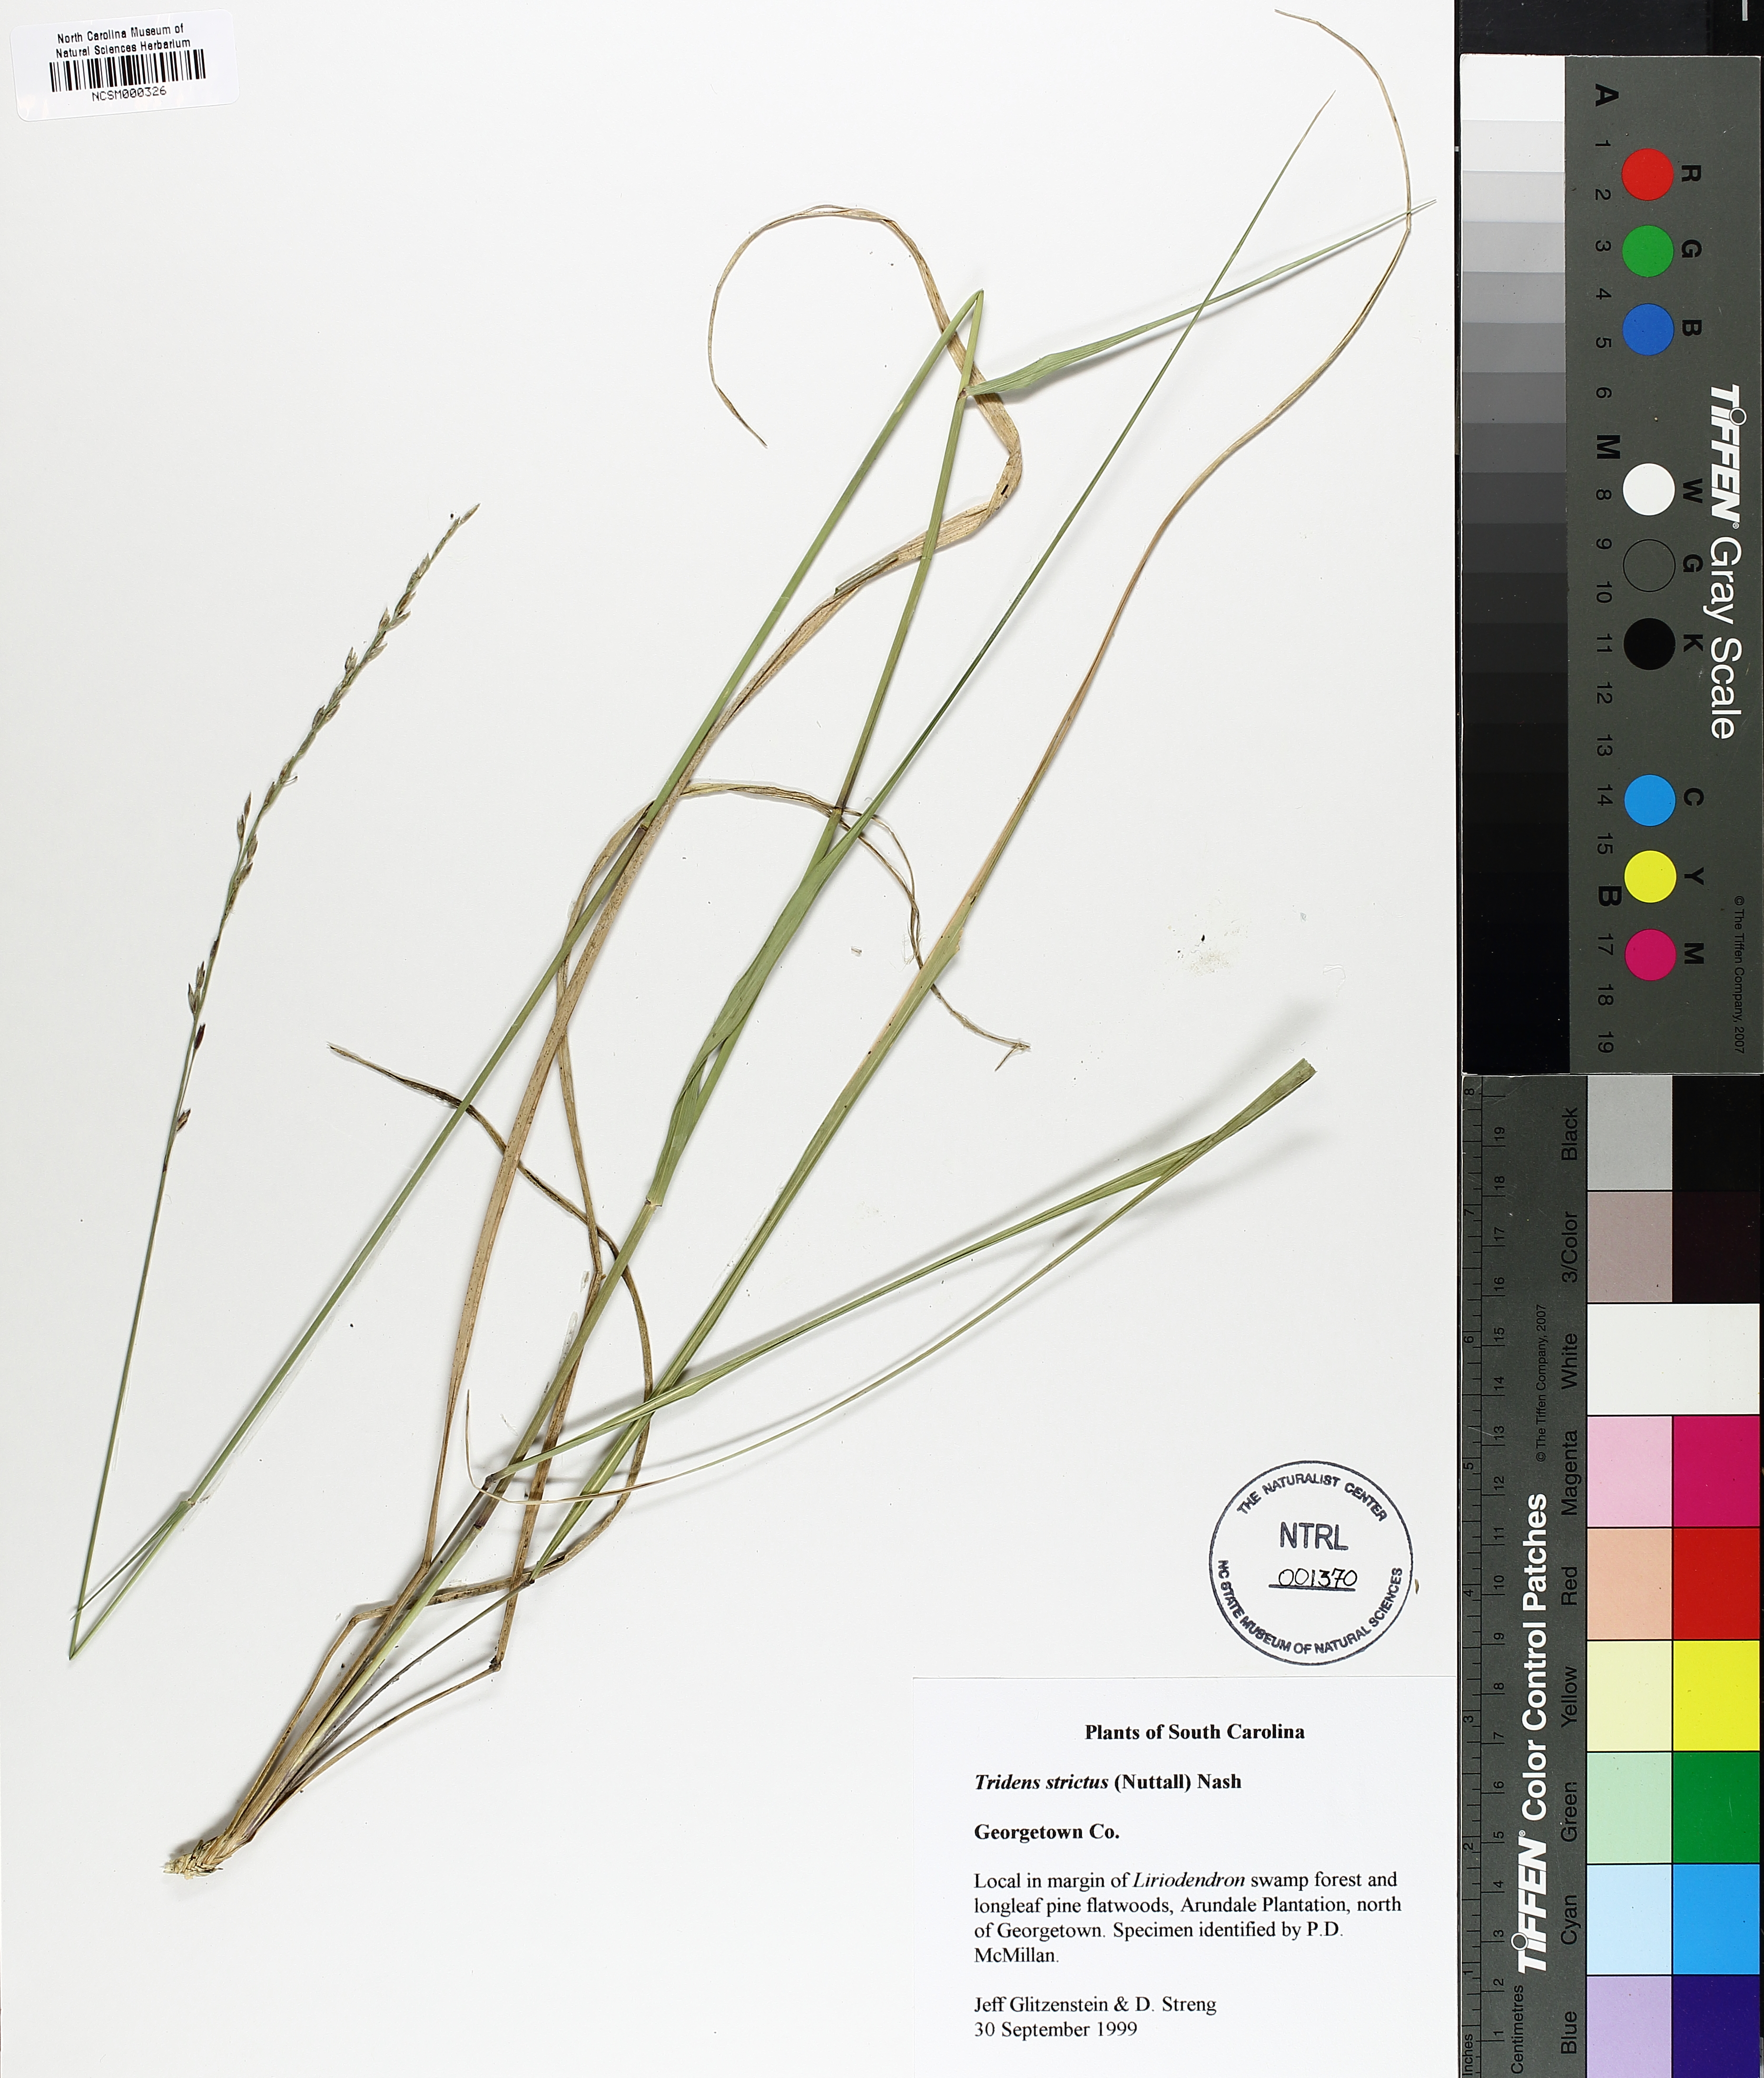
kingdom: Plantae
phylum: Tracheophyta
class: Liliopsida
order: Poales
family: Poaceae
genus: Tridens
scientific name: Tridens strictus
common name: Long-spike tridens
